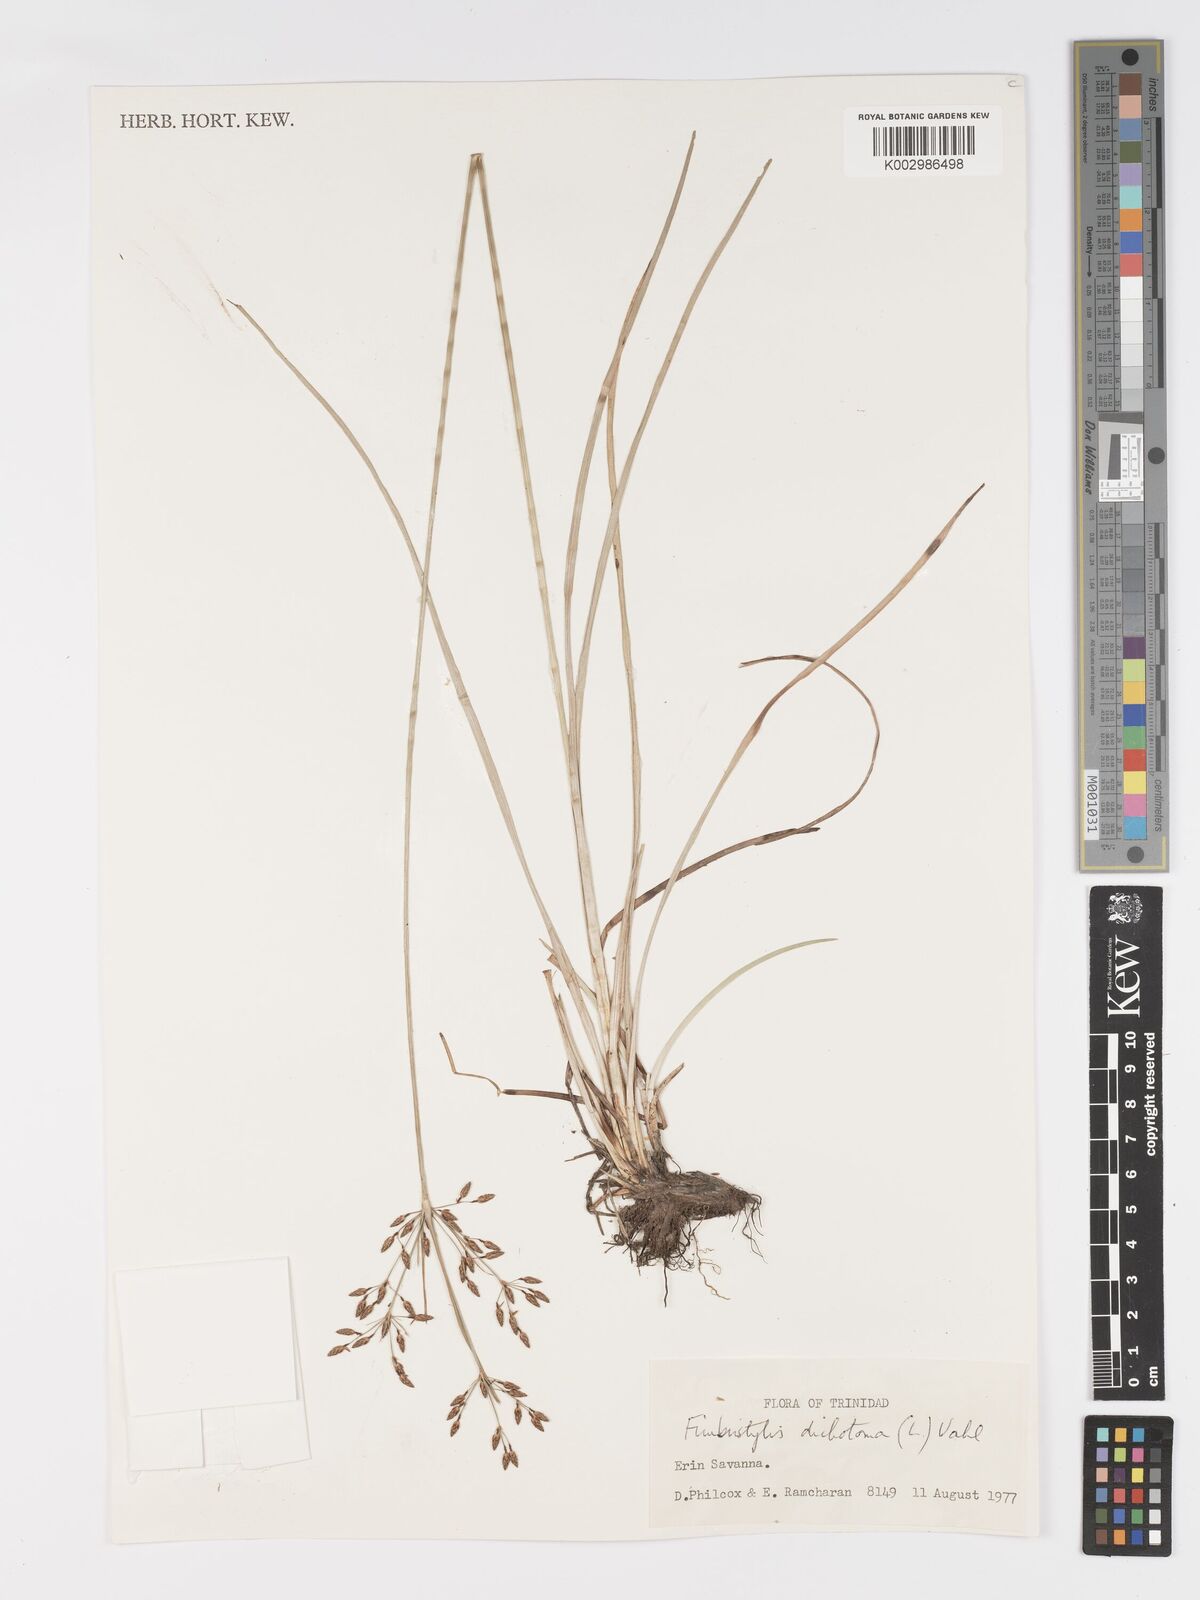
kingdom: Plantae
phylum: Tracheophyta
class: Liliopsida
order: Poales
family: Cyperaceae
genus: Fimbristylis
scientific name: Fimbristylis dichotoma
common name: Forked fimbry
